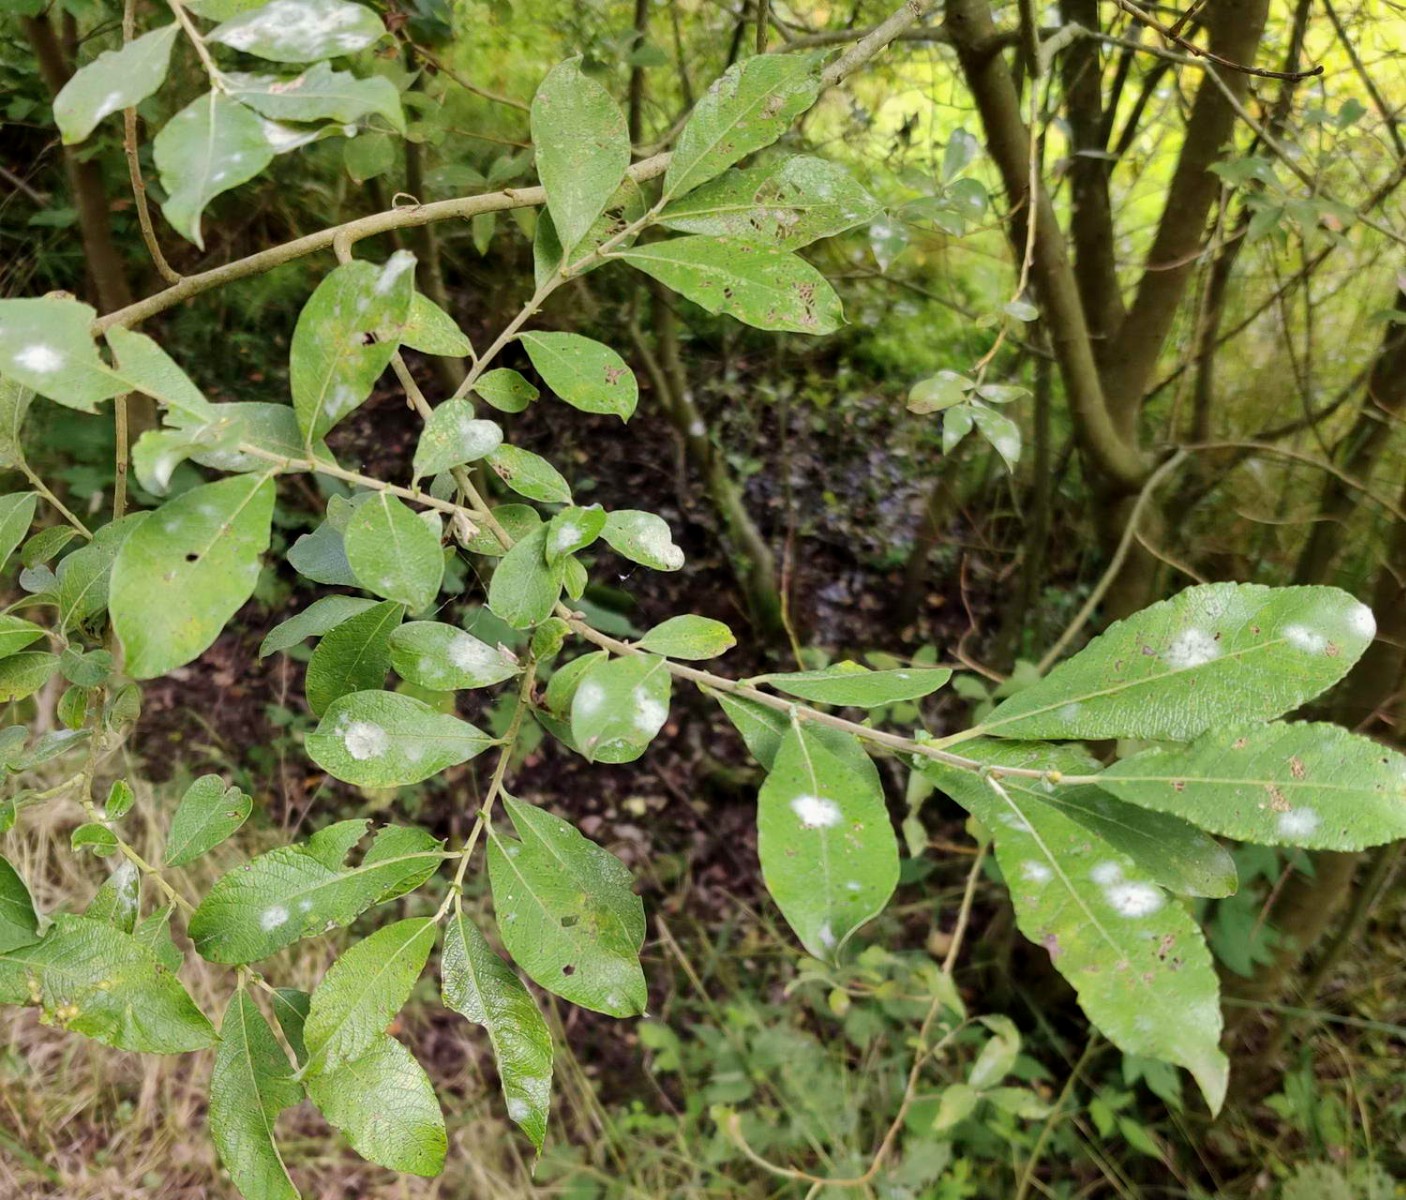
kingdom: Fungi
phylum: Ascomycota
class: Leotiomycetes
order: Helotiales
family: Erysiphaceae
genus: Erysiphe
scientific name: Erysiphe adunca
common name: pile-meldug
